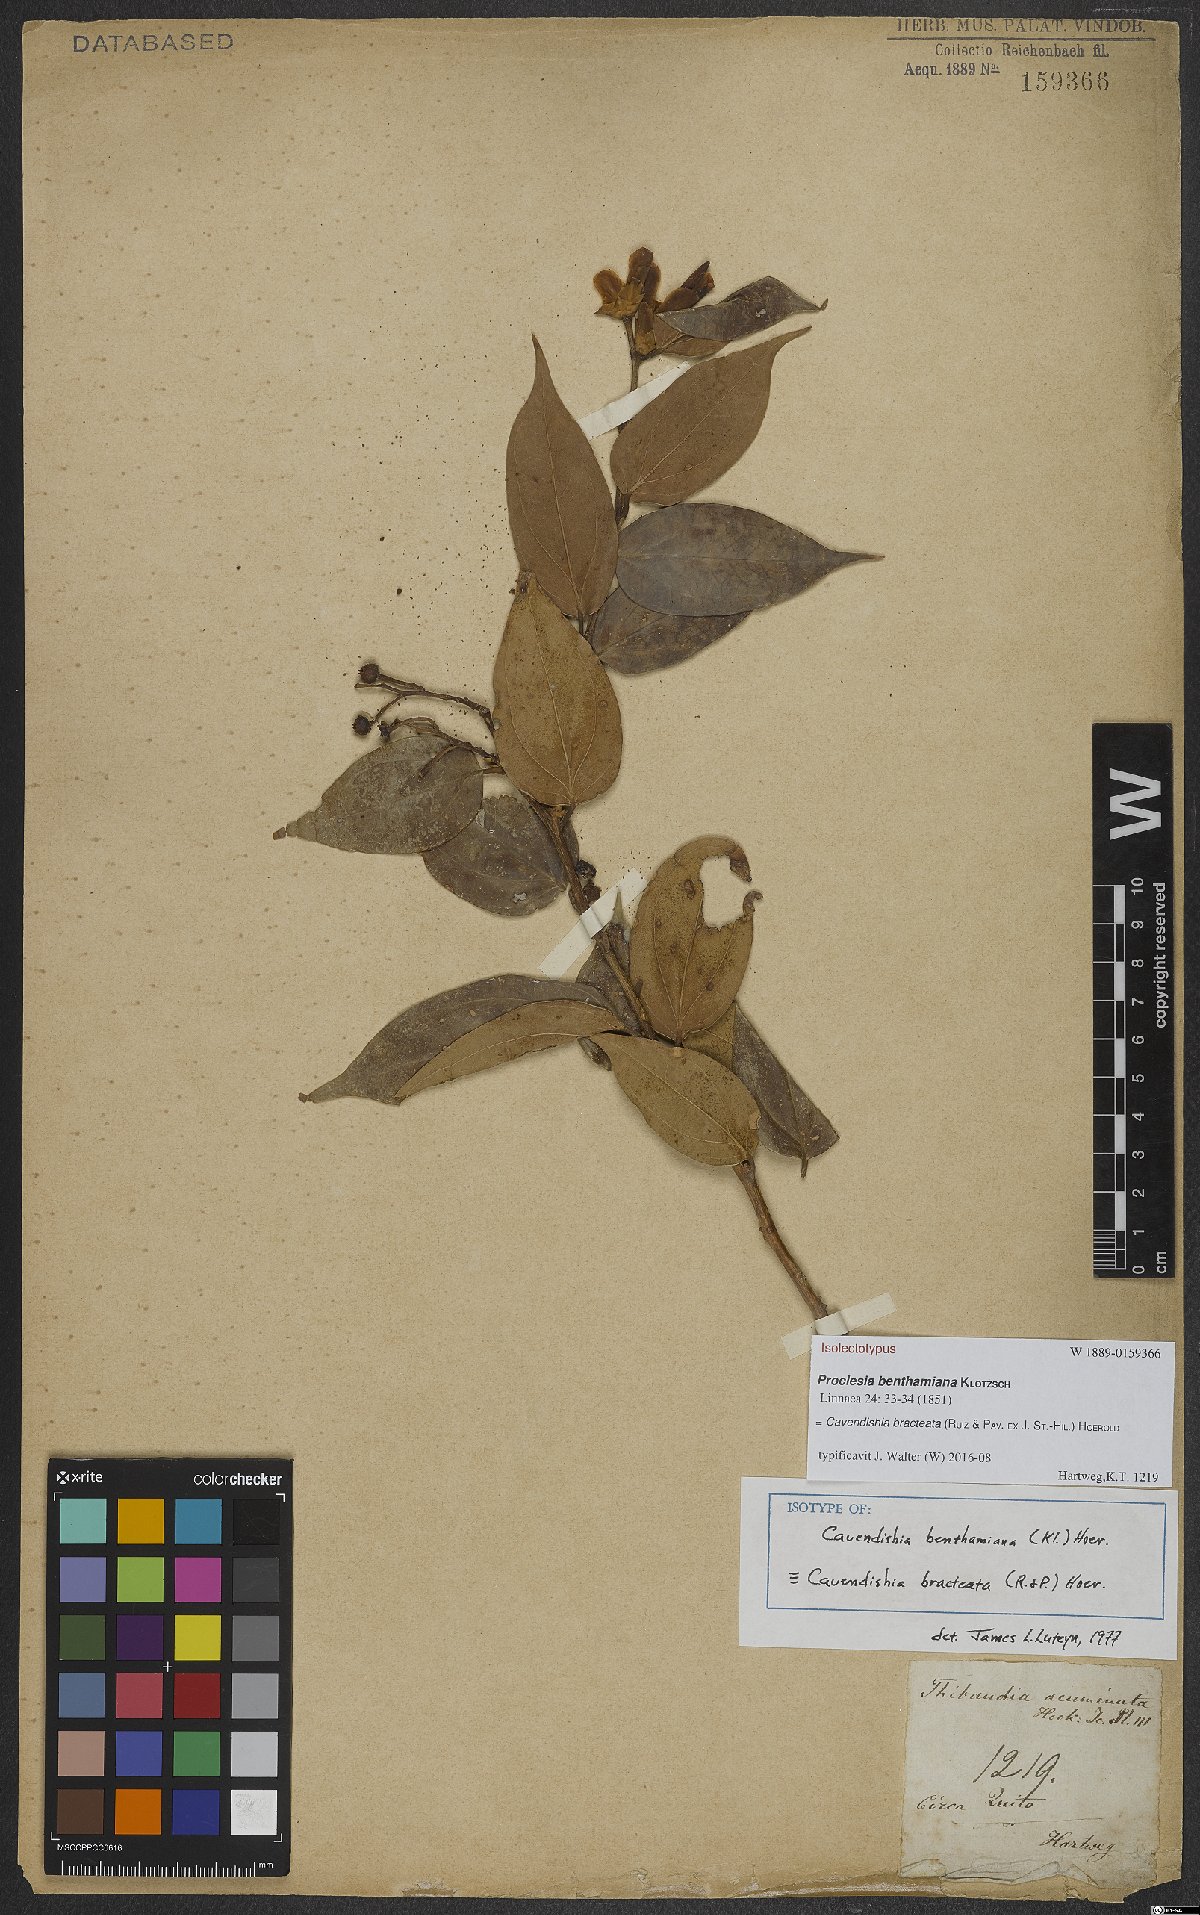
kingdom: Plantae
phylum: Tracheophyta
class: Magnoliopsida
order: Ericales
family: Ericaceae
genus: Cavendishia
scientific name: Cavendishia bracteata
